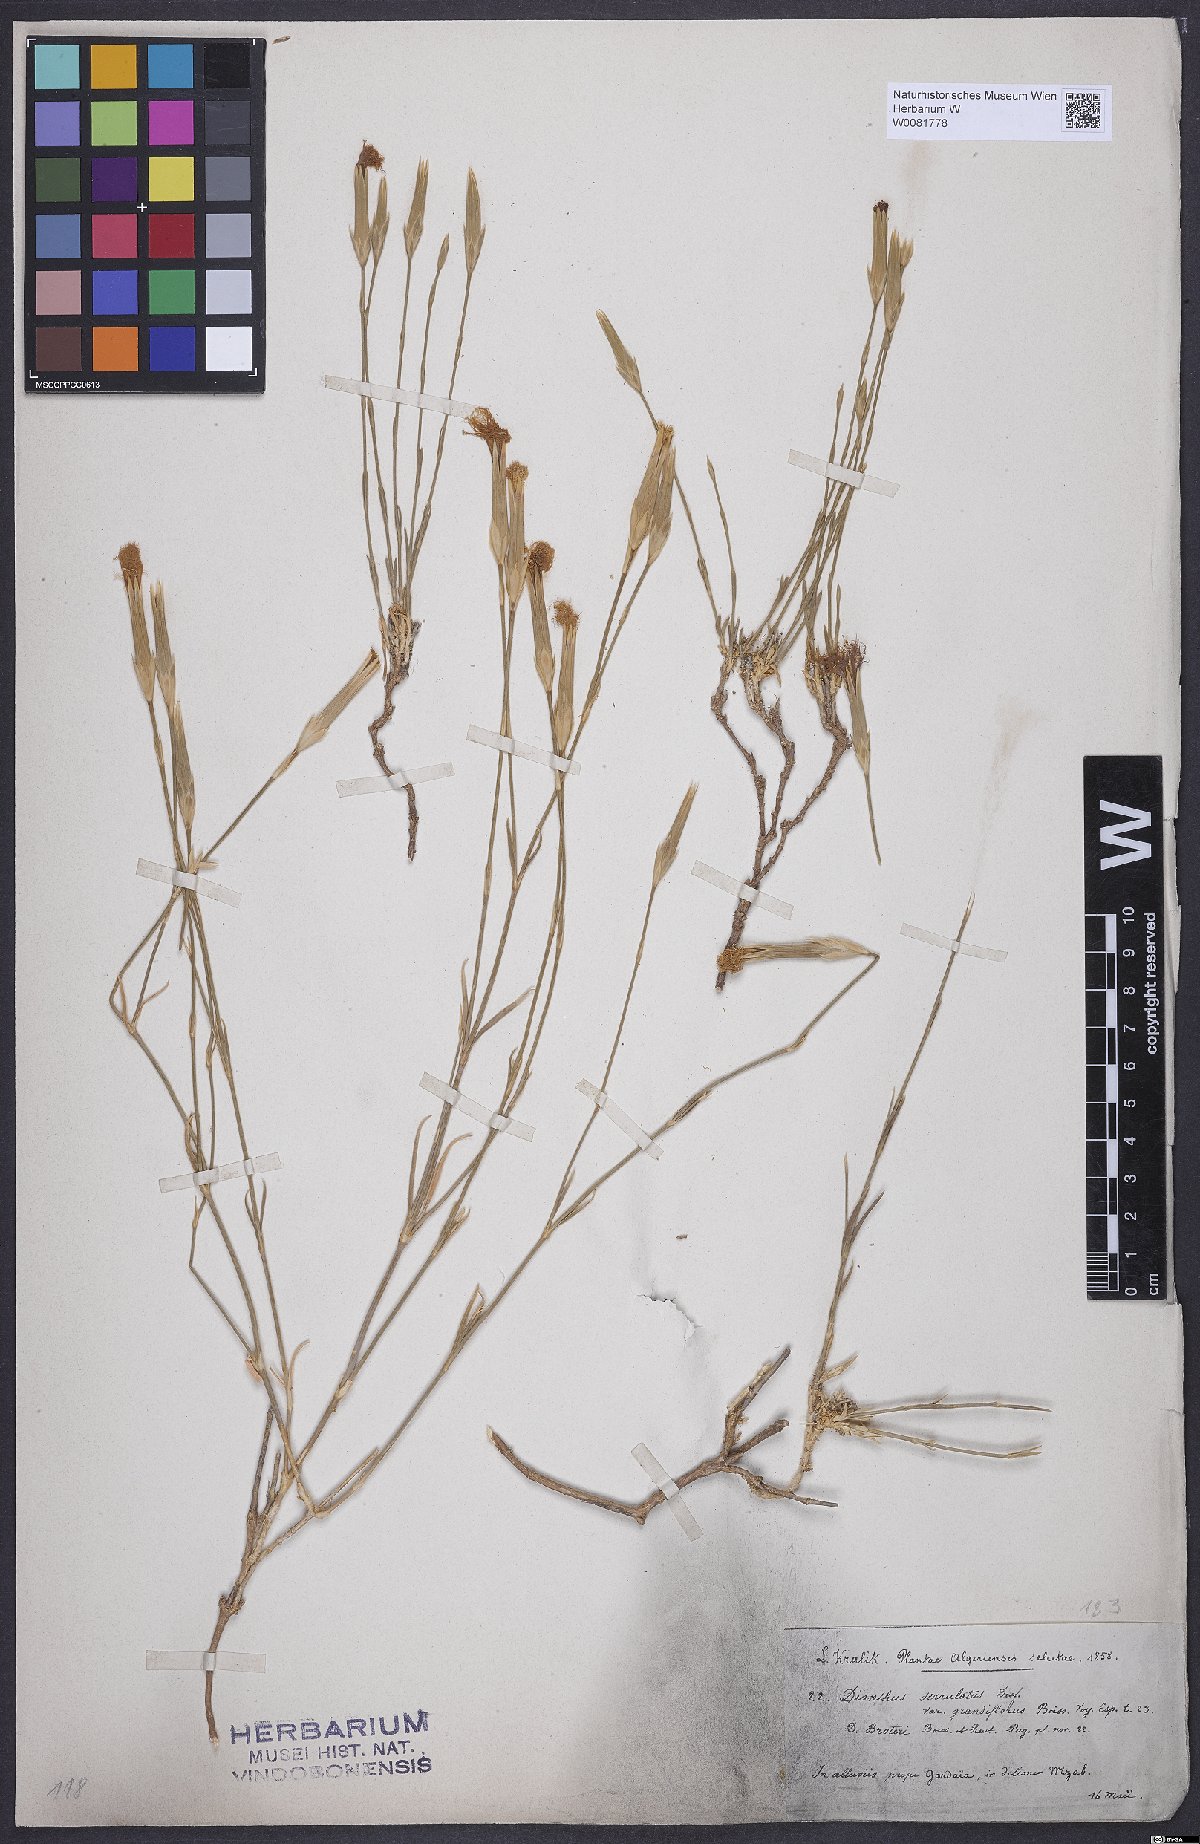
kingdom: Plantae
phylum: Tracheophyta
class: Magnoliopsida
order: Caryophyllales
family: Caryophyllaceae
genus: Dianthus
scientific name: Dianthus broteri
